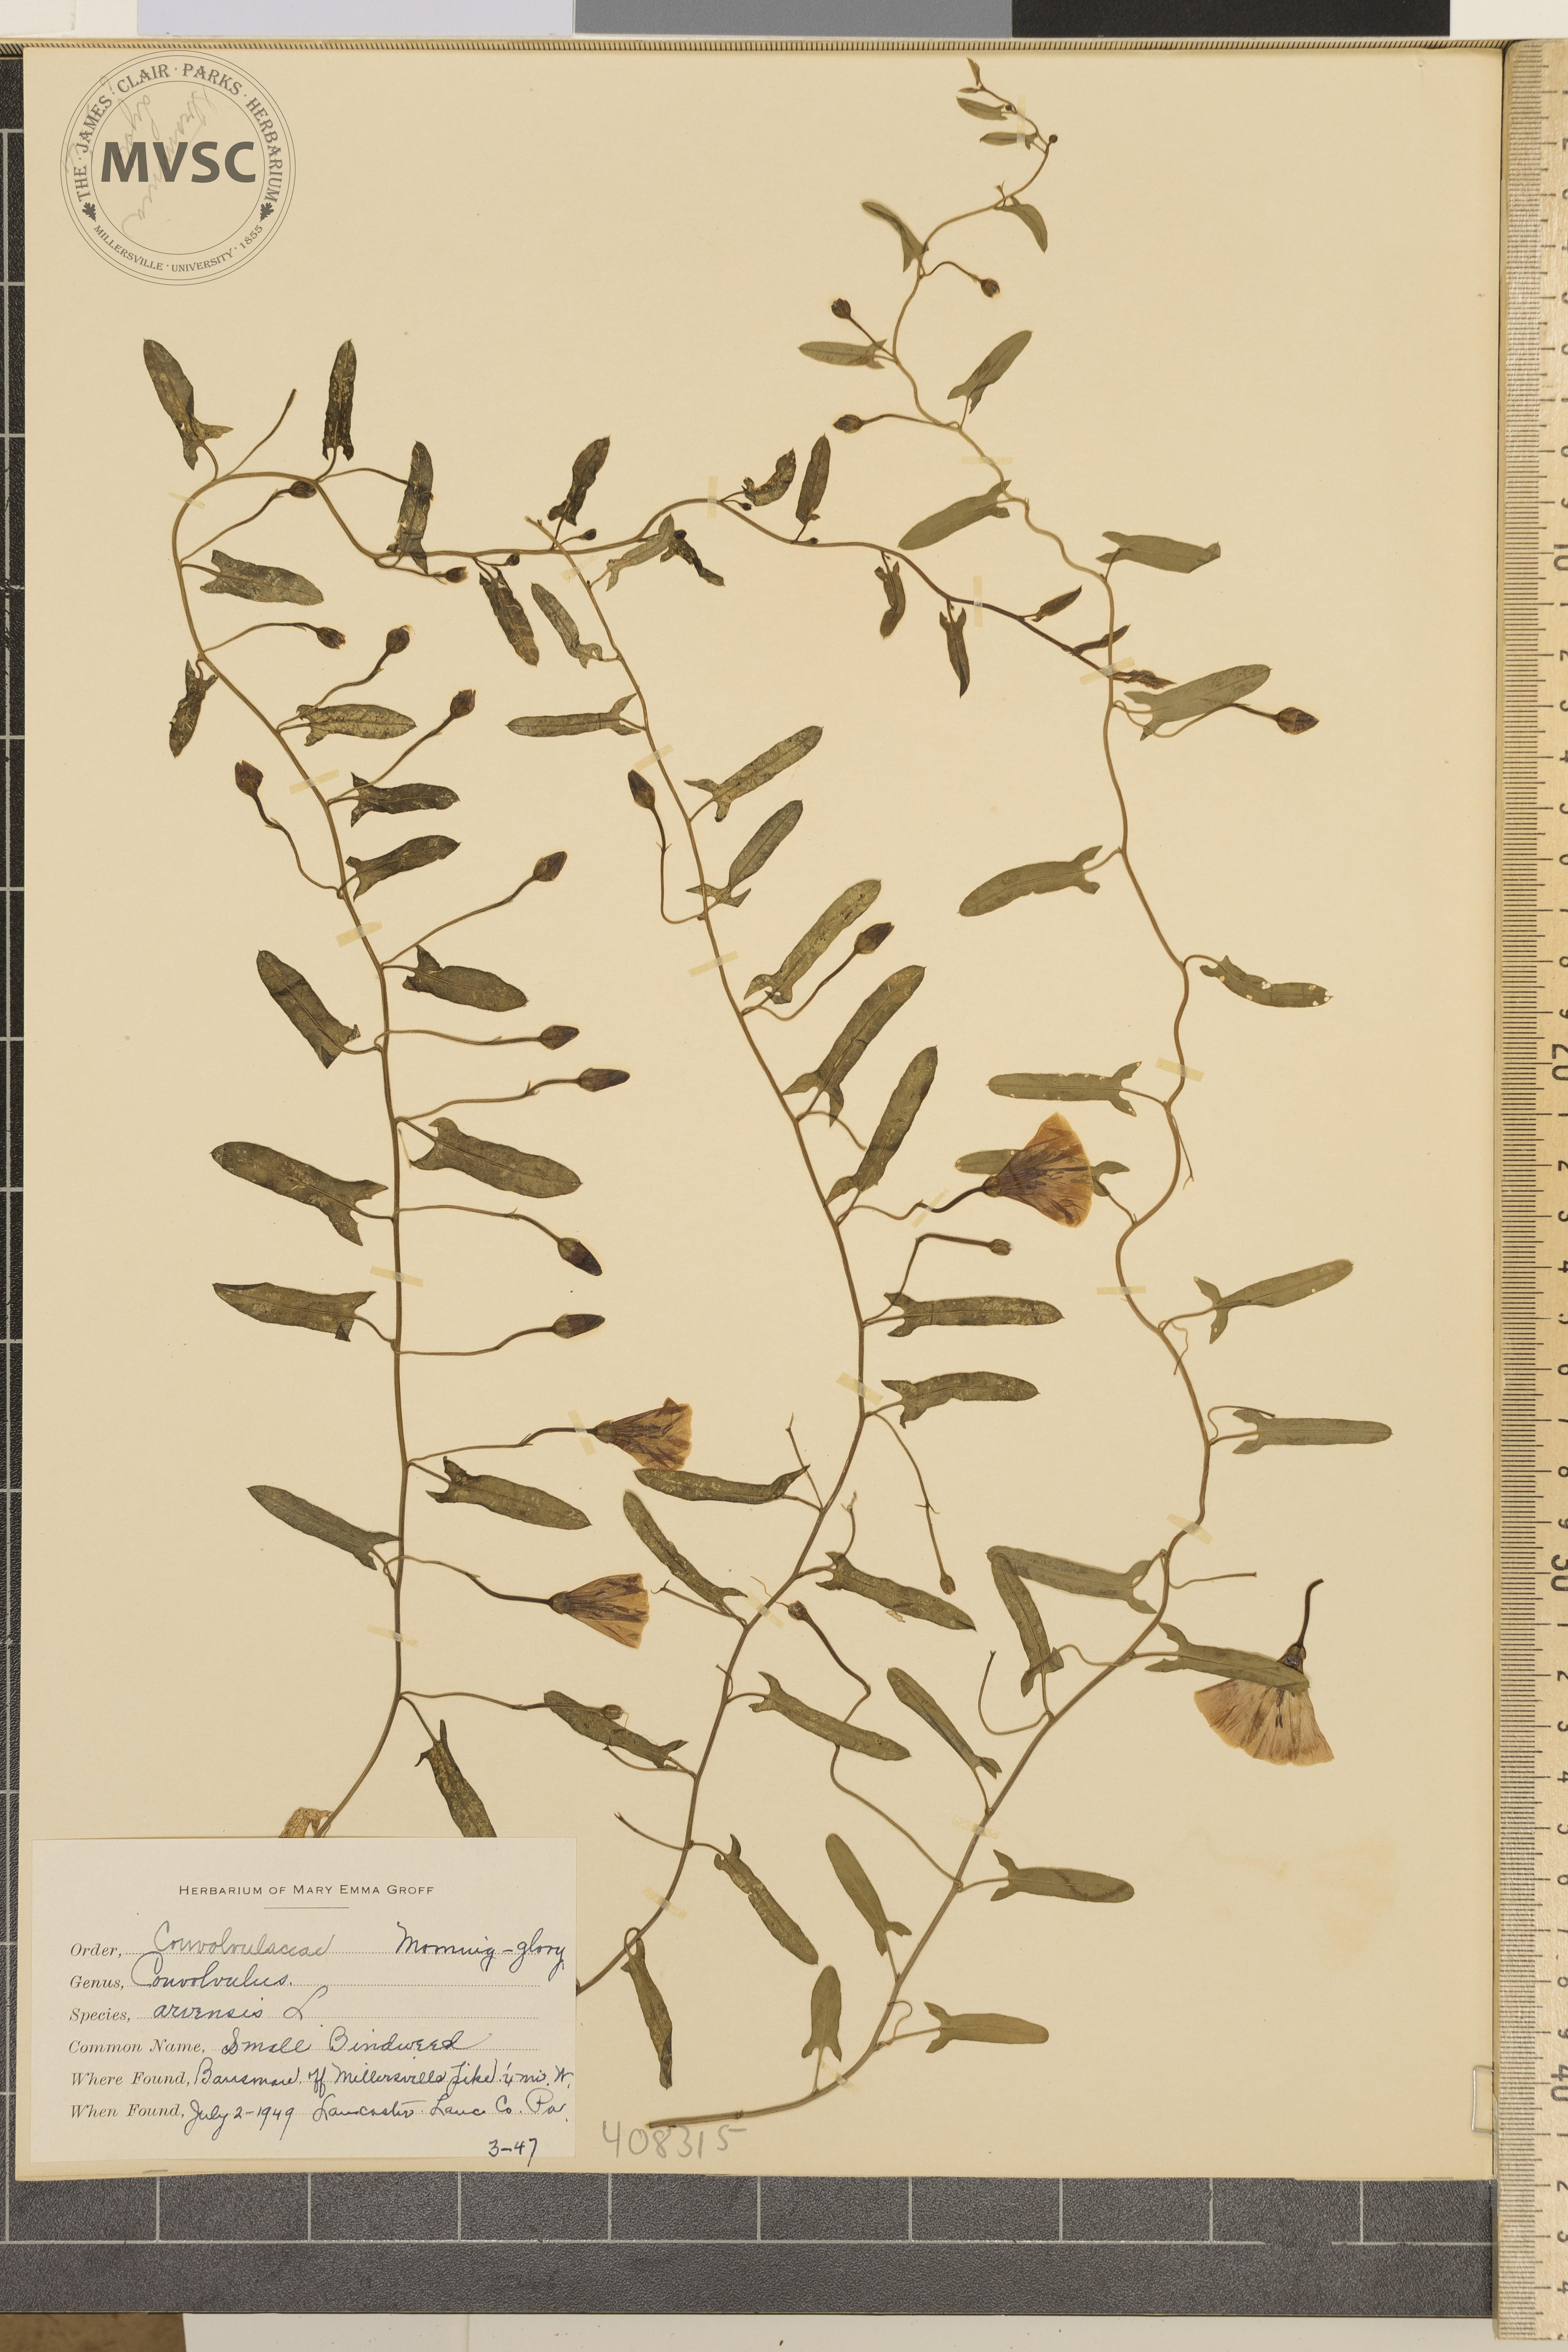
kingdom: Plantae
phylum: Tracheophyta
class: Magnoliopsida
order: Solanales
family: Convolvulaceae
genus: Convolvulus
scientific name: Convolvulus arvensis
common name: Small Bindweed
